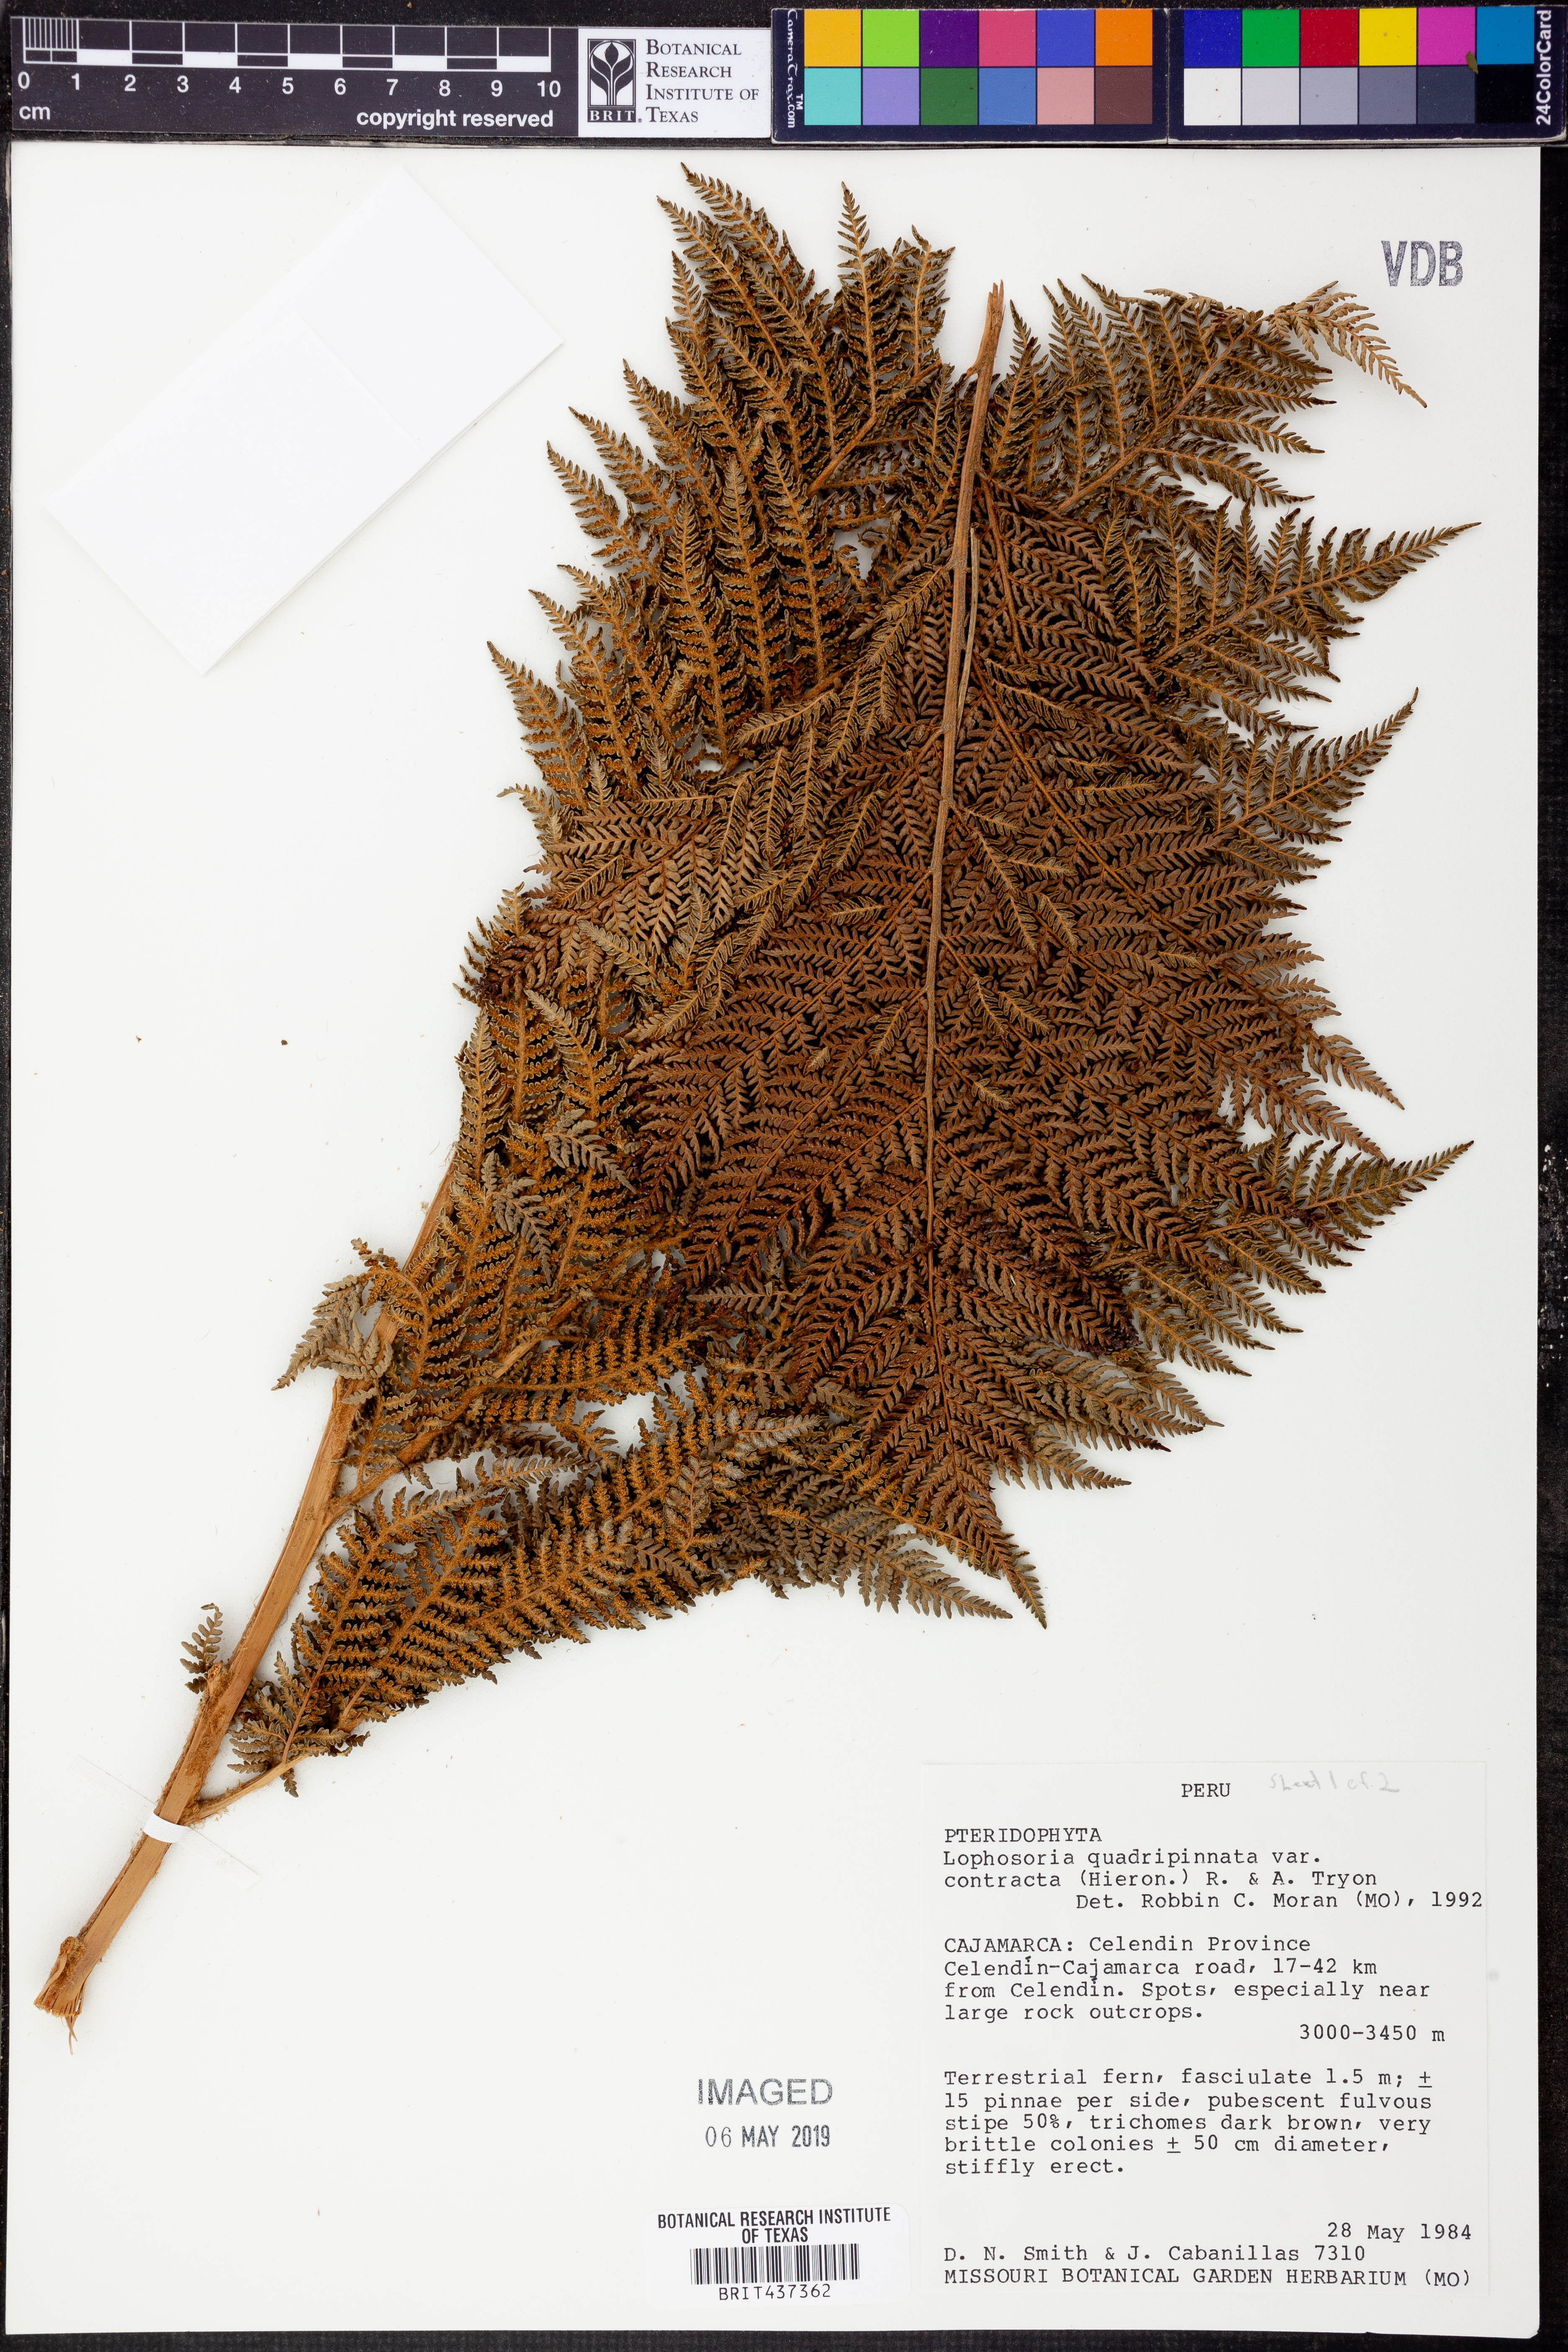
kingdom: Plantae
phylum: Tracheophyta
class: Polypodiopsida
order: Cyatheales
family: Dicksoniaceae
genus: Lophosoria
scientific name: Lophosoria quadripinnata
